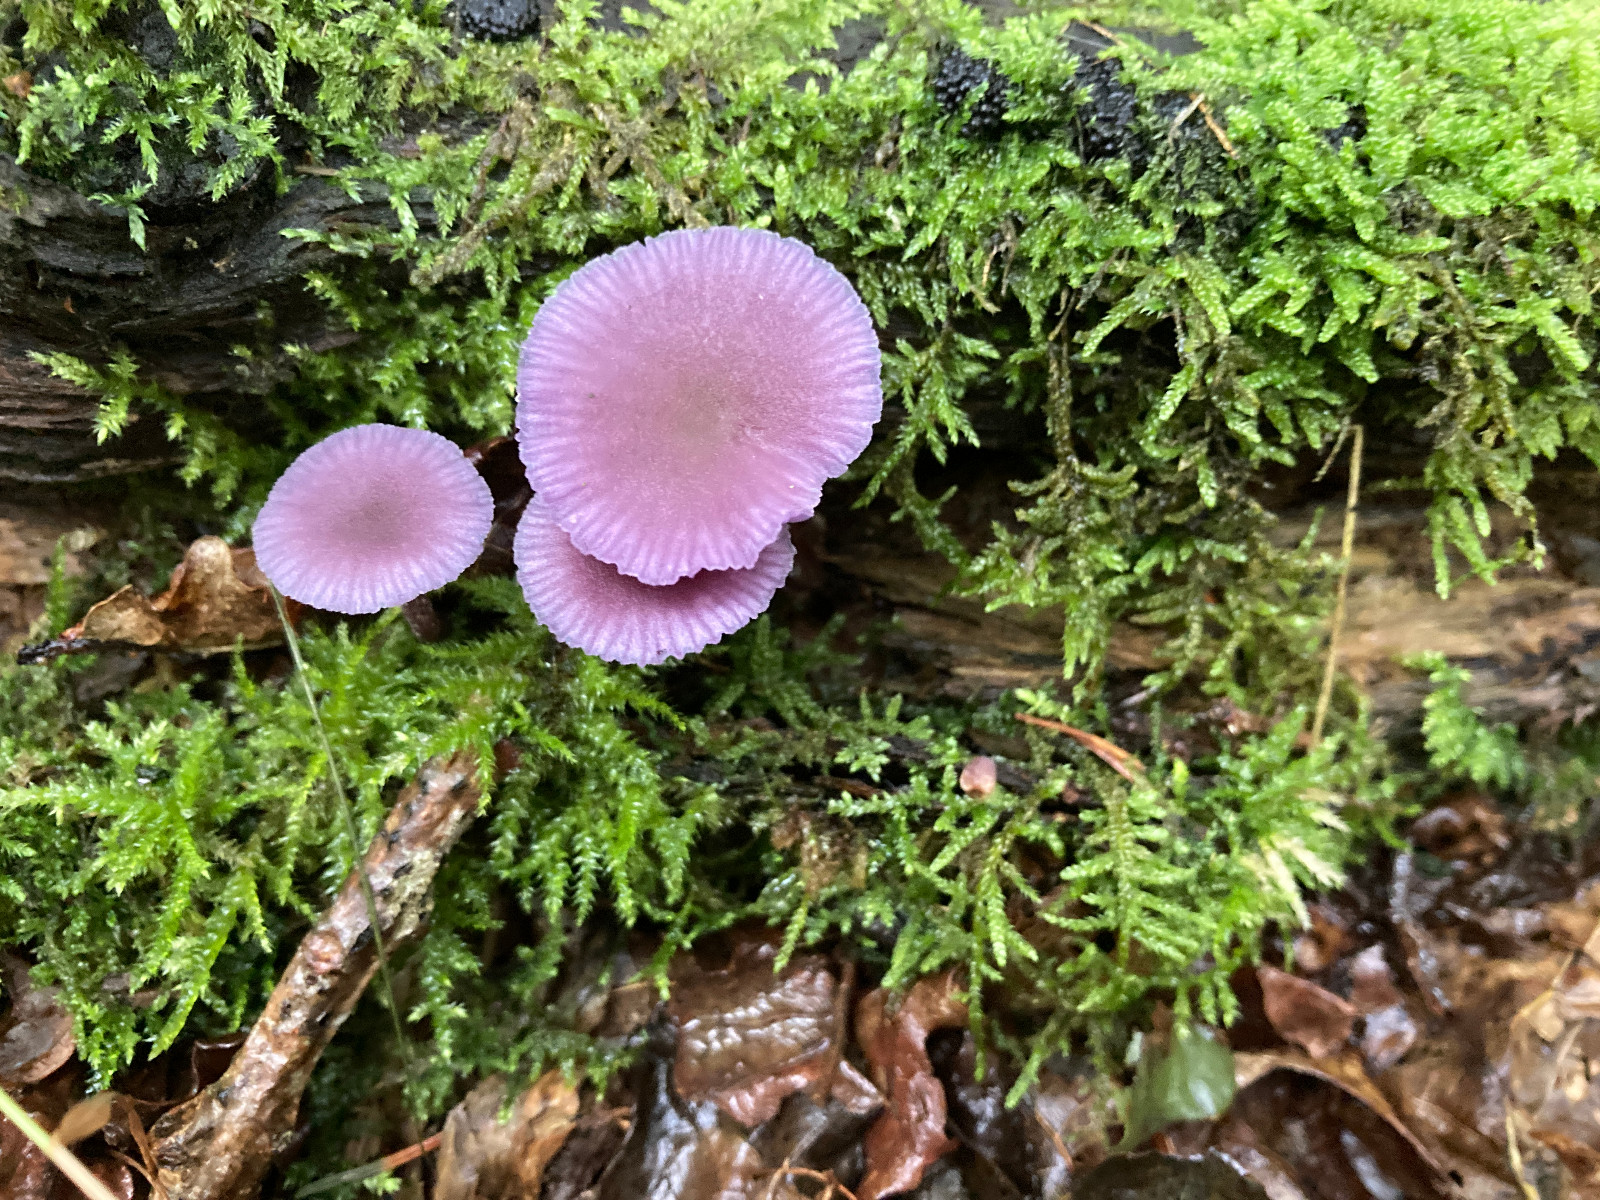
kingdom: Fungi
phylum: Basidiomycota
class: Agaricomycetes
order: Agaricales
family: Hydnangiaceae
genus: Laccaria
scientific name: Laccaria amethystina
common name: violet ametysthat
